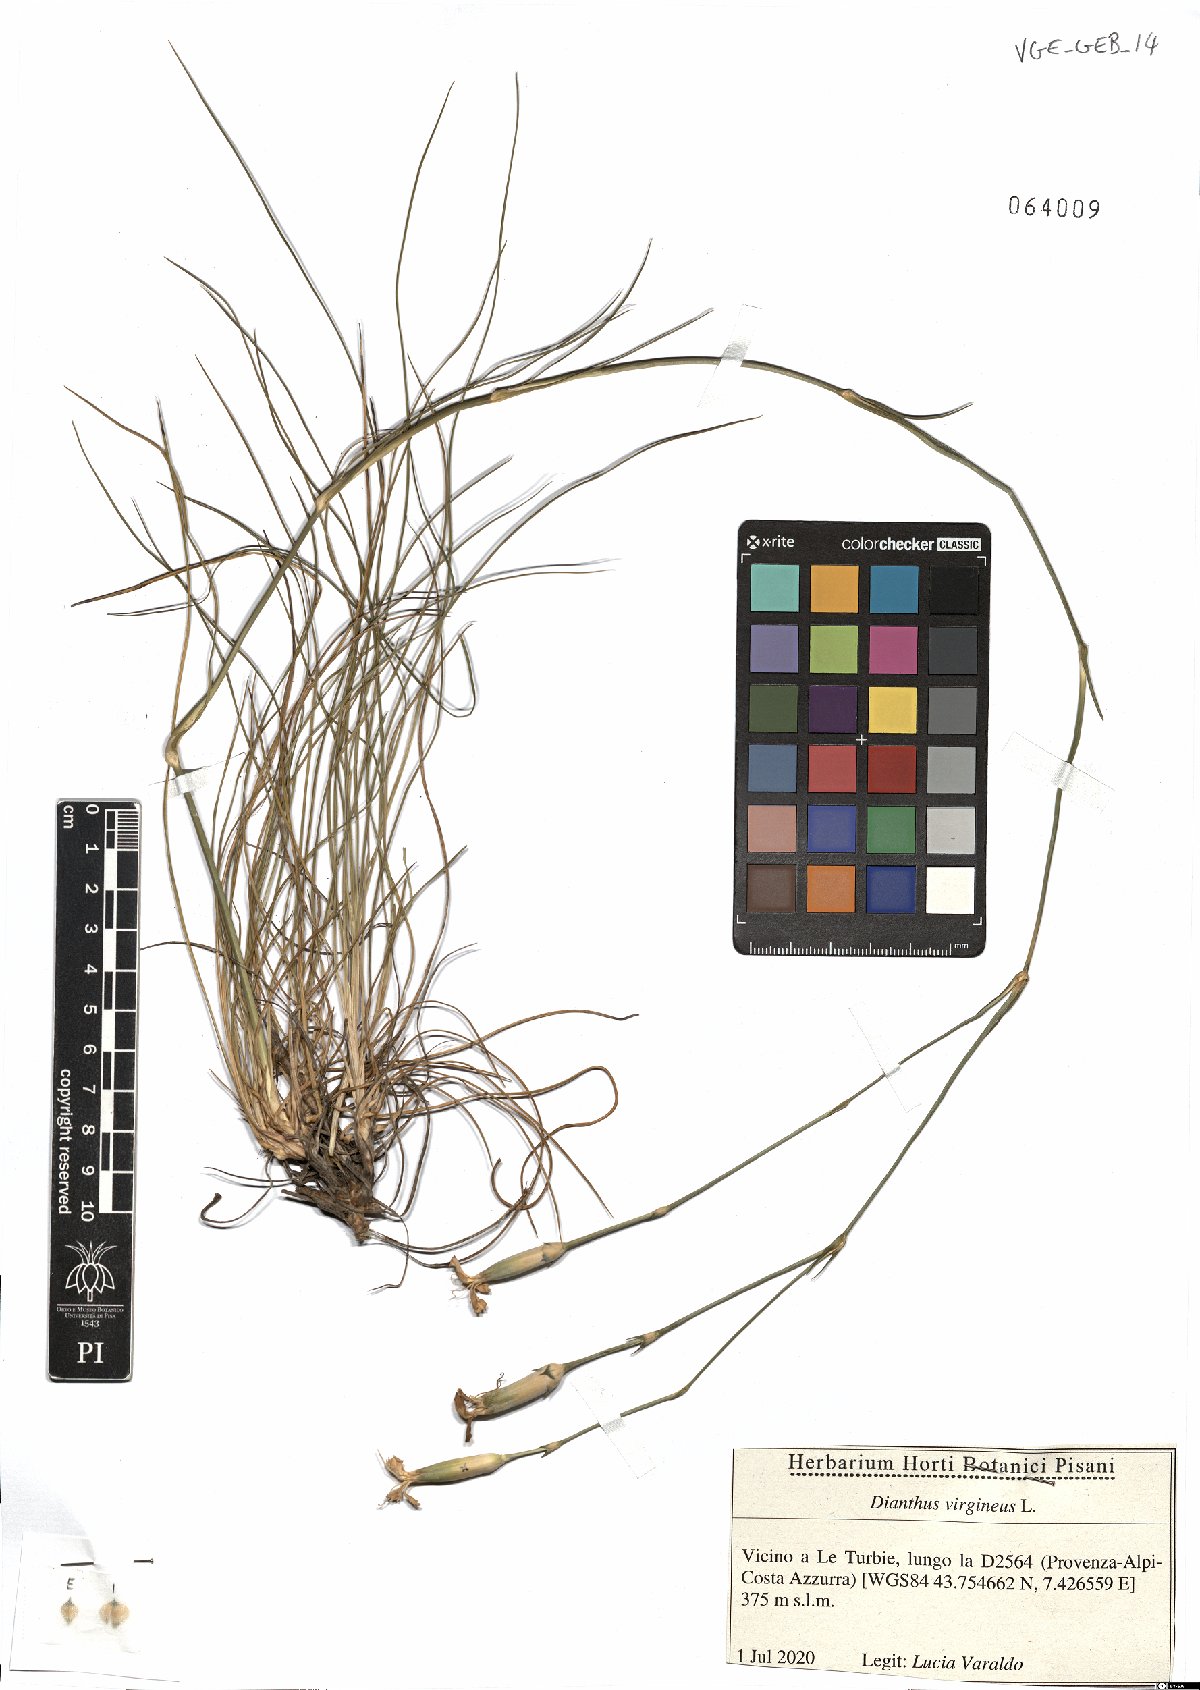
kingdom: Plantae
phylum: Tracheophyta
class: Magnoliopsida
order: Caryophyllales
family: Caryophyllaceae
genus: Dianthus
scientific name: Dianthus virgineus
